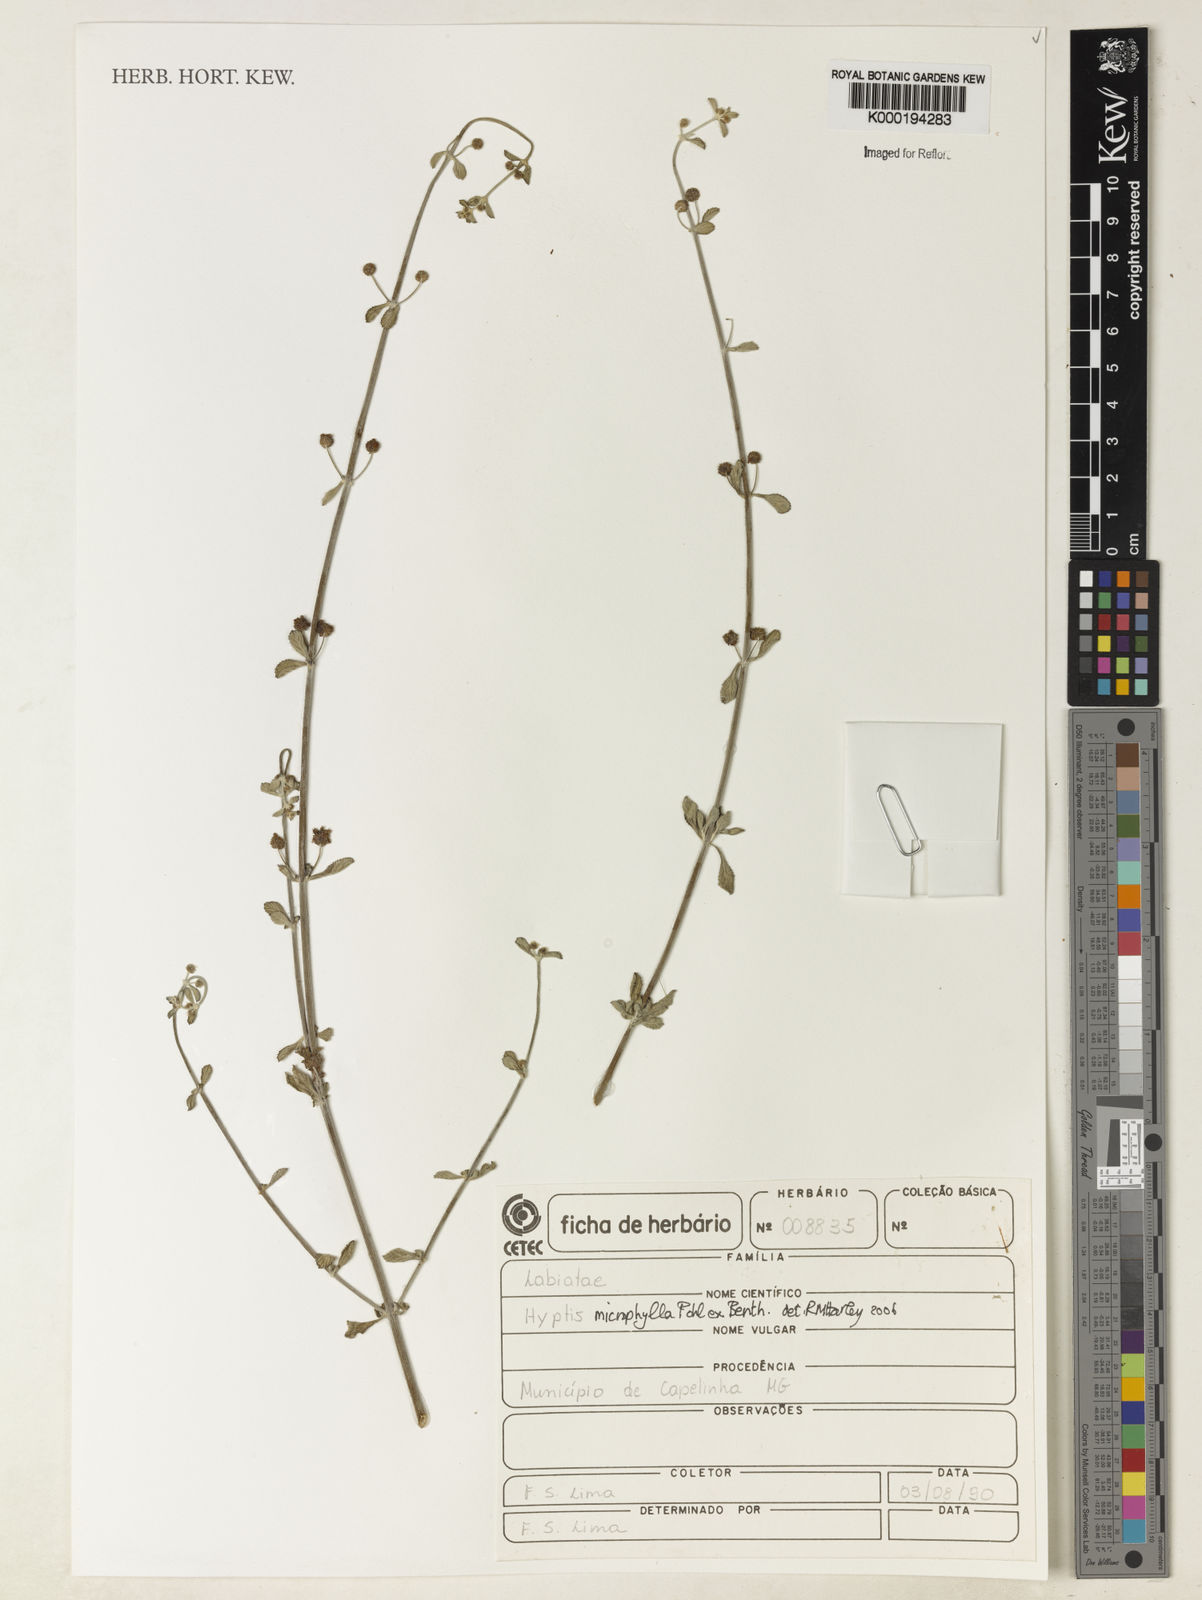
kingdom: Plantae
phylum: Tracheophyta
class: Magnoliopsida
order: Lamiales
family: Lamiaceae
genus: Hyptis
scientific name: Hyptis microphylla
